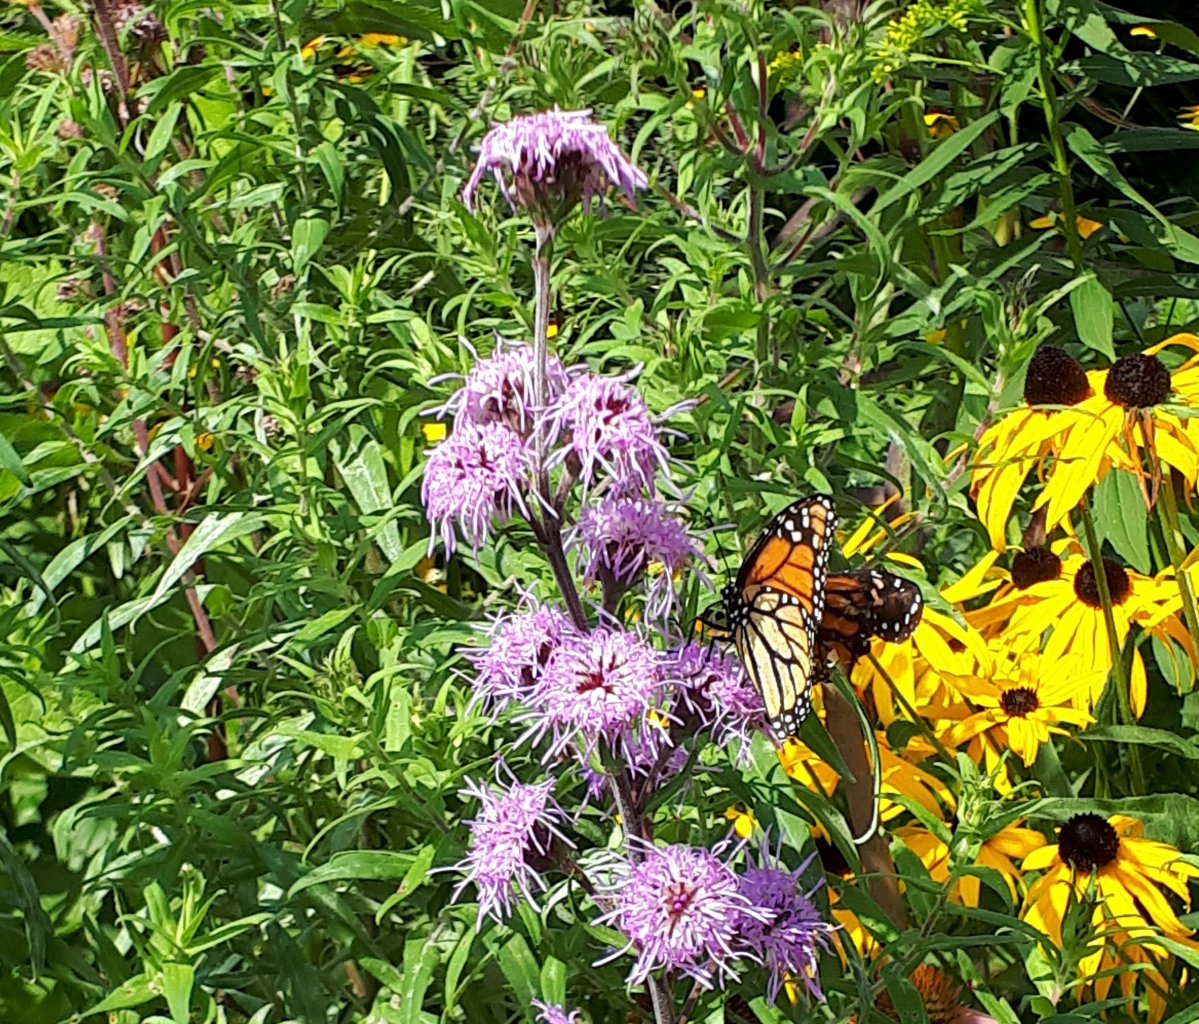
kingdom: Animalia
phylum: Arthropoda
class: Insecta
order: Lepidoptera
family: Nymphalidae
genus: Danaus
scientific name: Danaus plexippus
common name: Monarch
